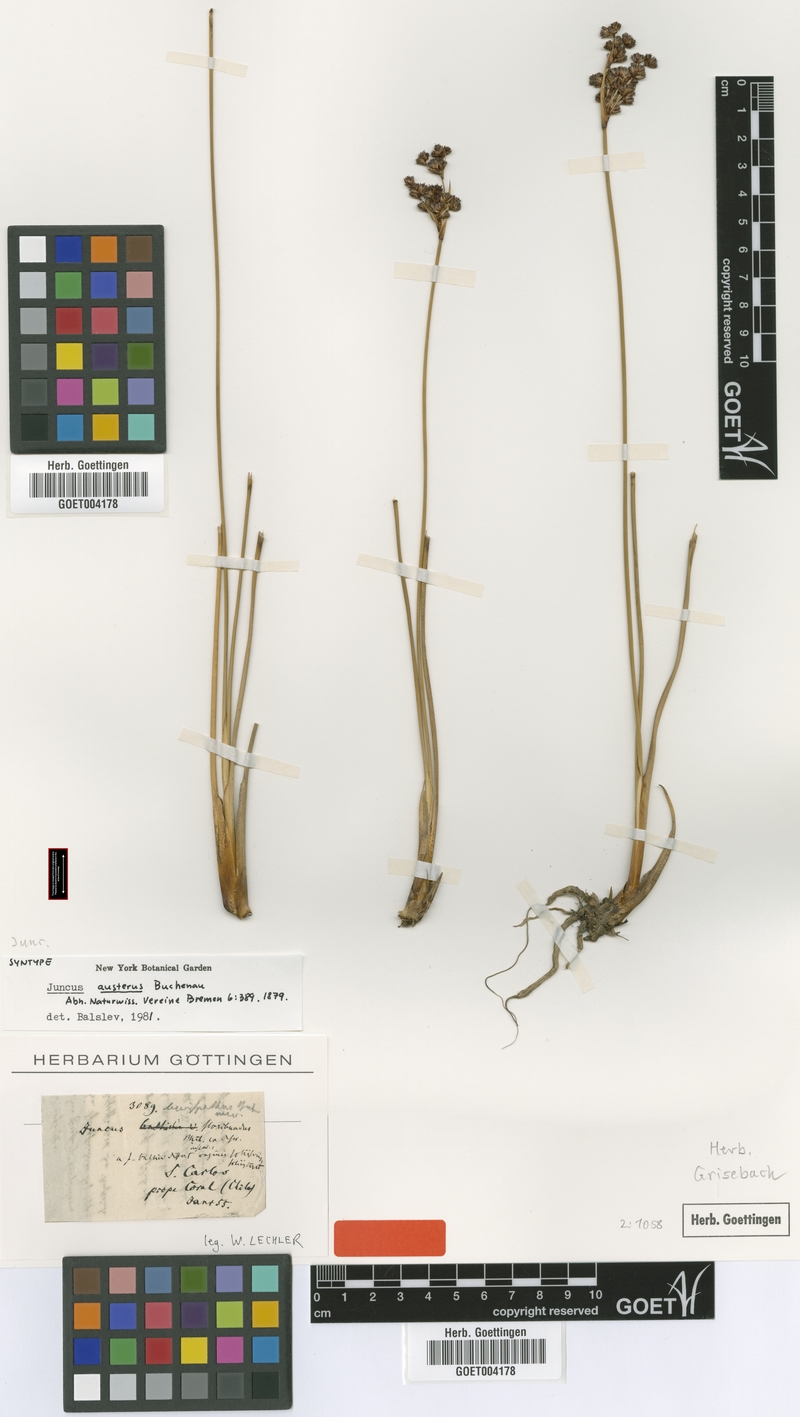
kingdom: Plantae
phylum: Tracheophyta
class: Liliopsida
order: Poales
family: Juncaceae
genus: Juncus
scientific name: Juncus kraussii
